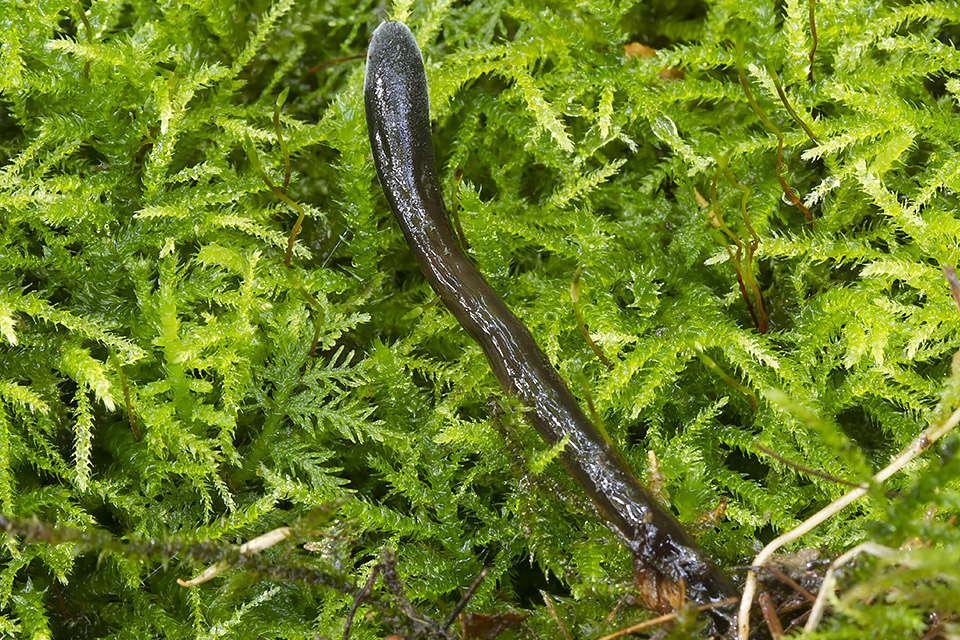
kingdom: Fungi
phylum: Ascomycota
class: Geoglossomycetes
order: Geoglossales
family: Geoglossaceae
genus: Glutinoglossum
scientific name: Glutinoglossum glutinosum
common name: slimet jordtunge
